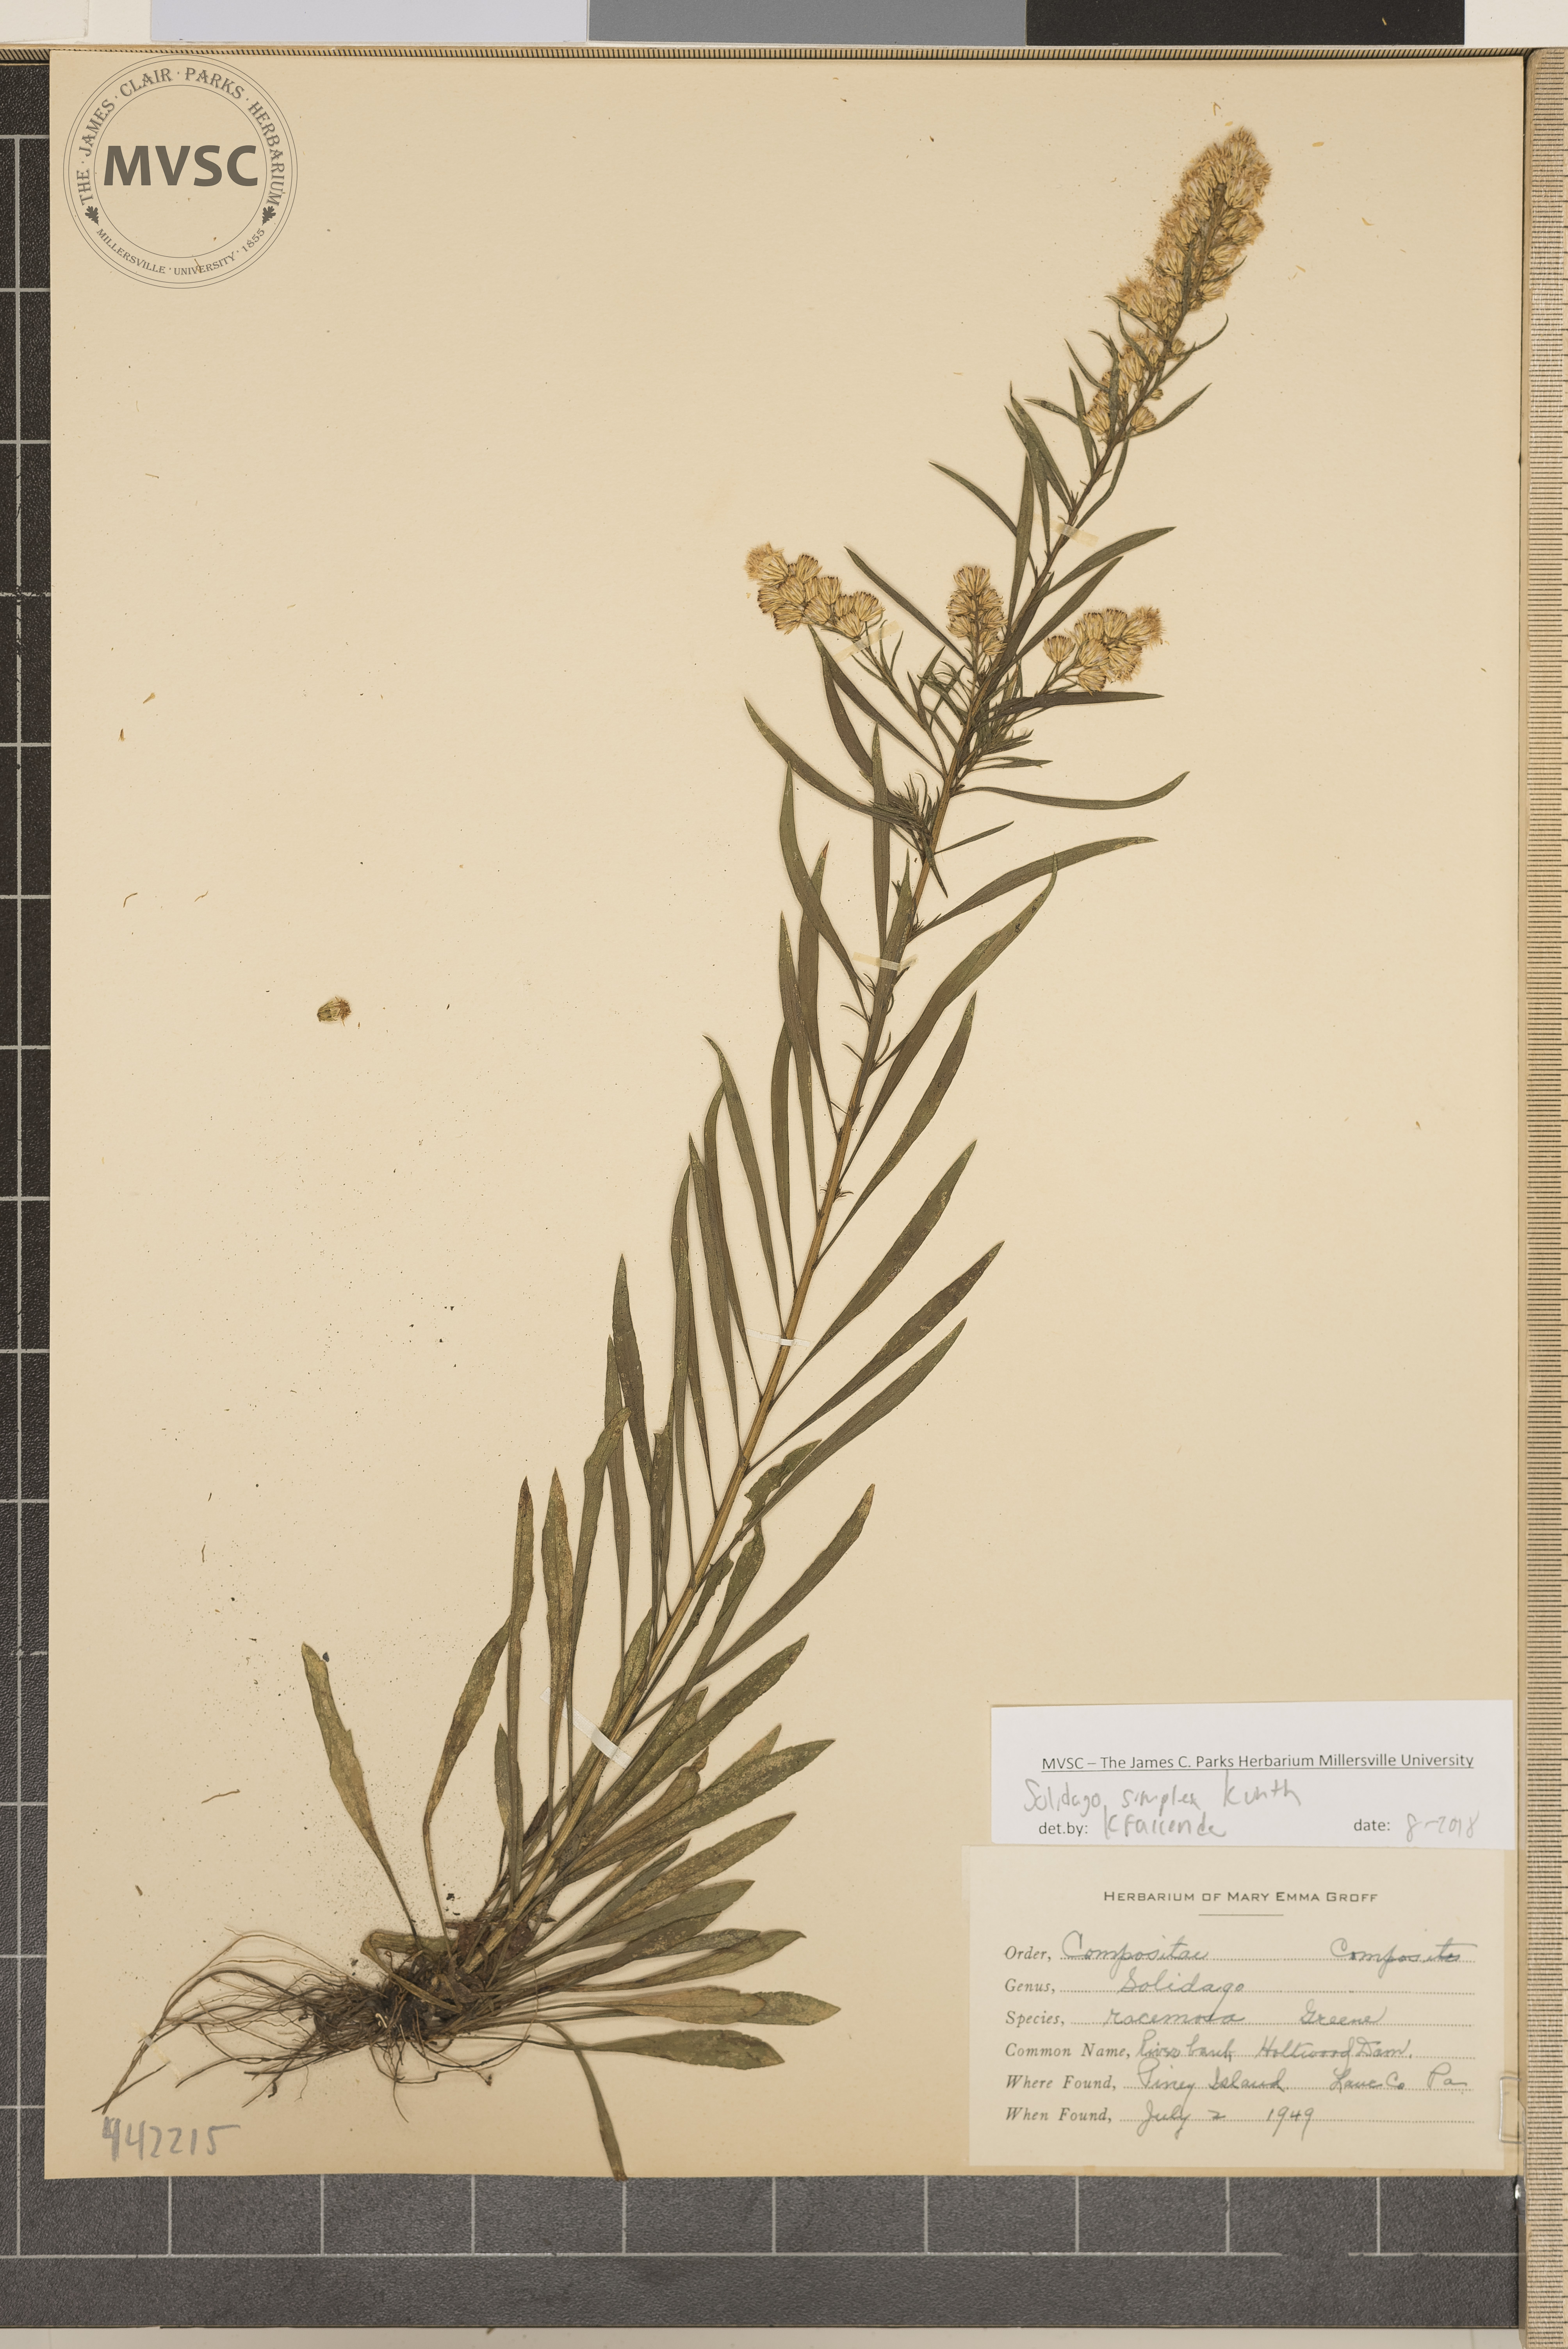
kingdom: Plantae
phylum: Tracheophyta
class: Magnoliopsida
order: Asterales
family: Asteraceae
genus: Solidago
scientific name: Solidago simplex
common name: Sticky goldenrod
